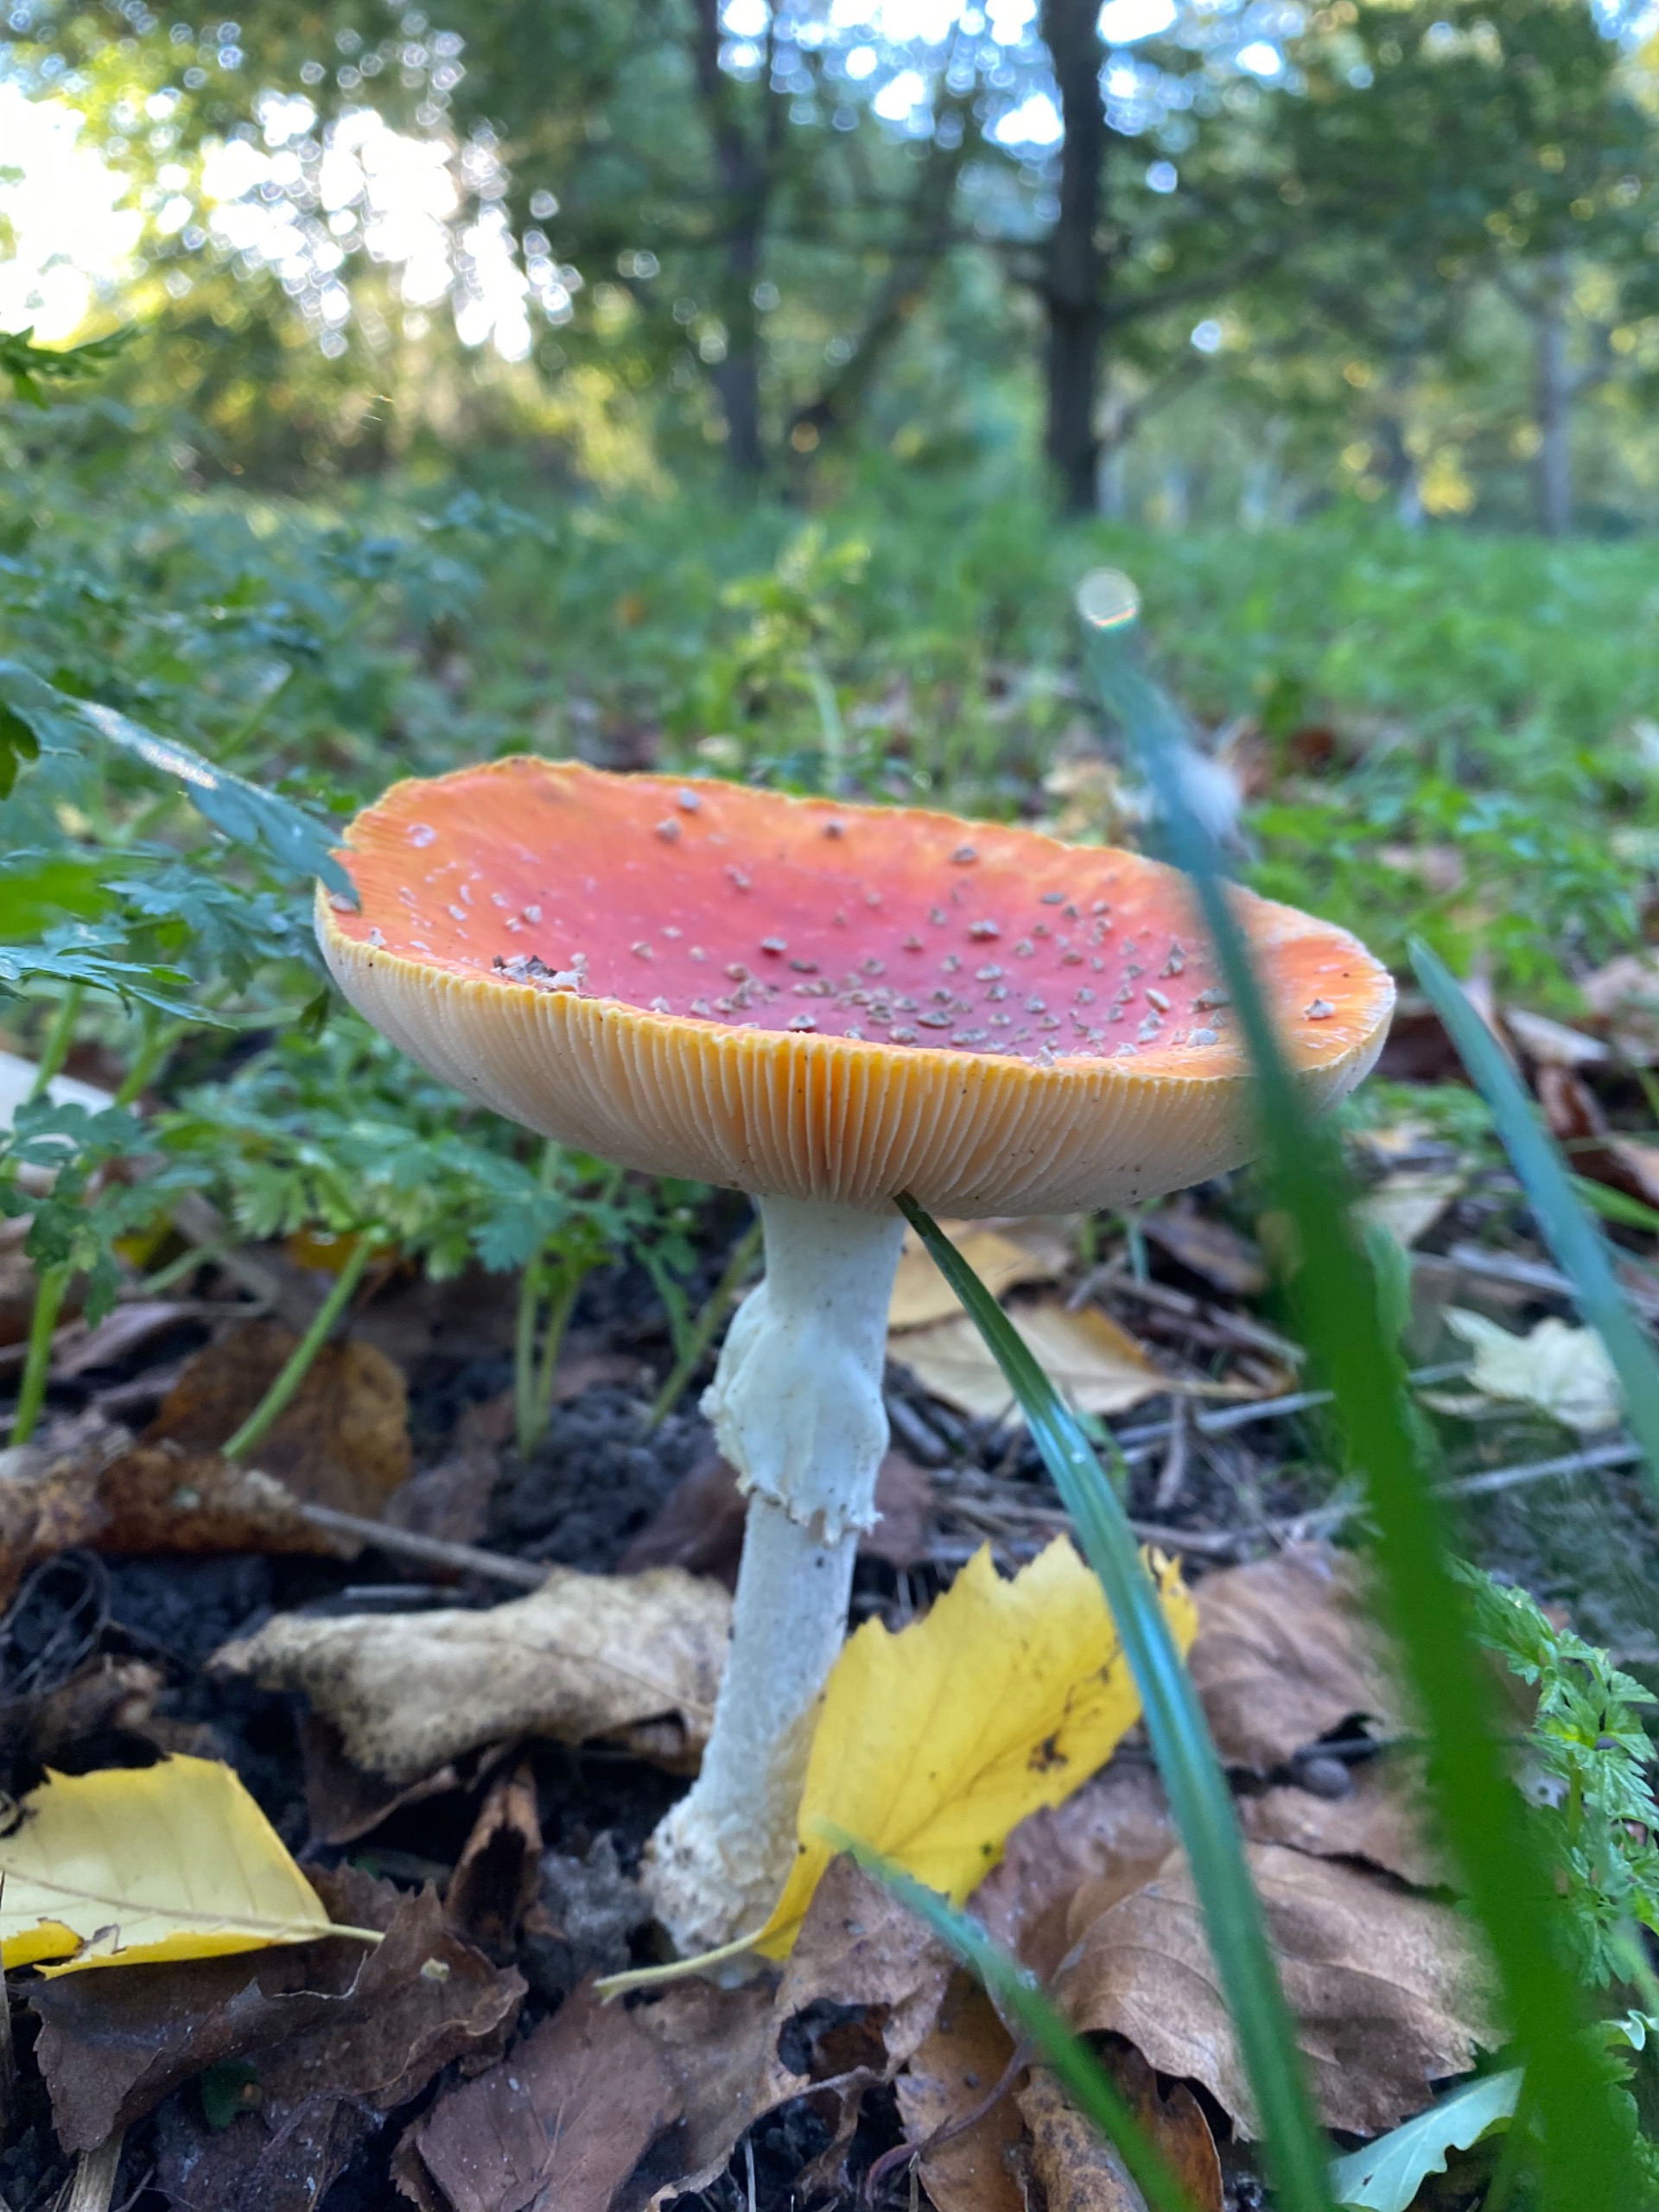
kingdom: Fungi
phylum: Basidiomycota
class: Agaricomycetes
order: Agaricales
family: Amanitaceae
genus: Amanita
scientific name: Amanita muscaria
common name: Rød fluesvamp
